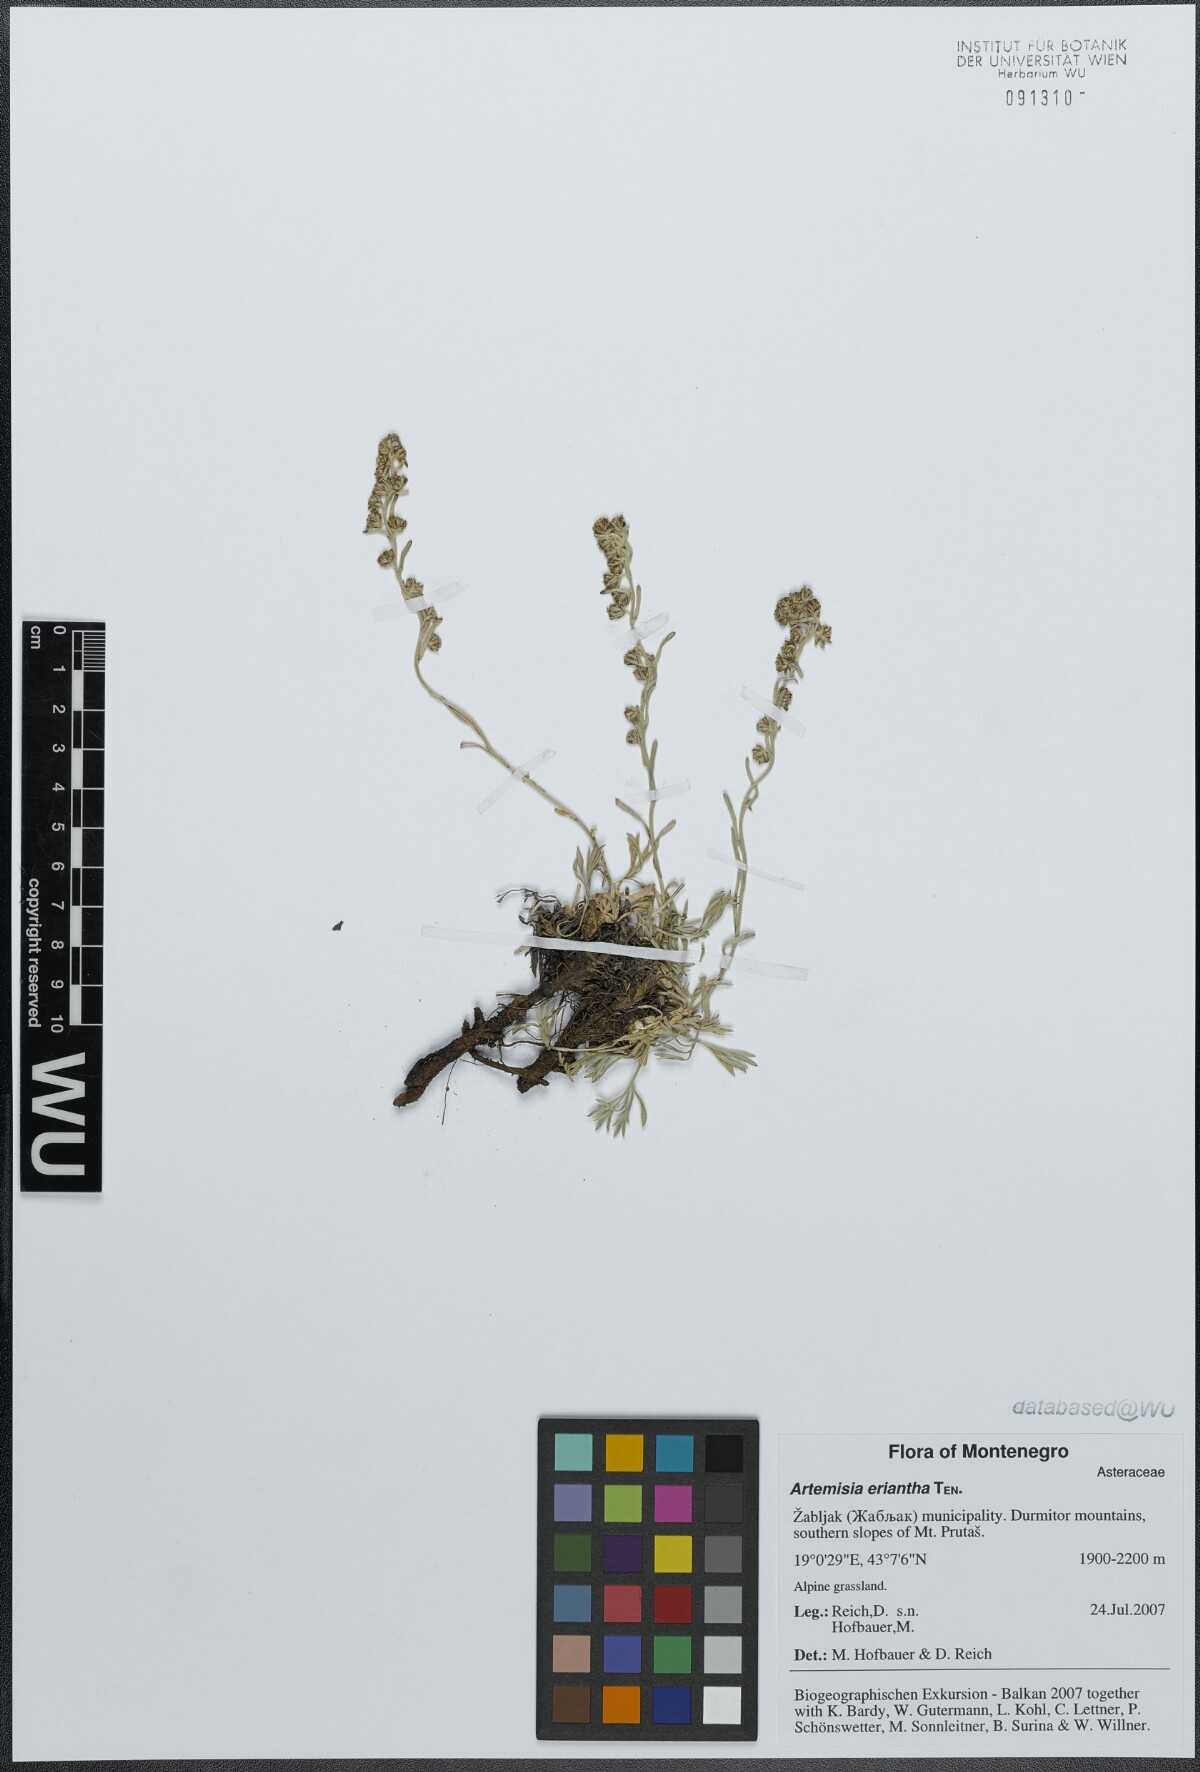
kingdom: Plantae
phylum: Tracheophyta
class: Magnoliopsida
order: Asterales
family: Asteraceae
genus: Artemisia
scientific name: Artemisia eriantha
